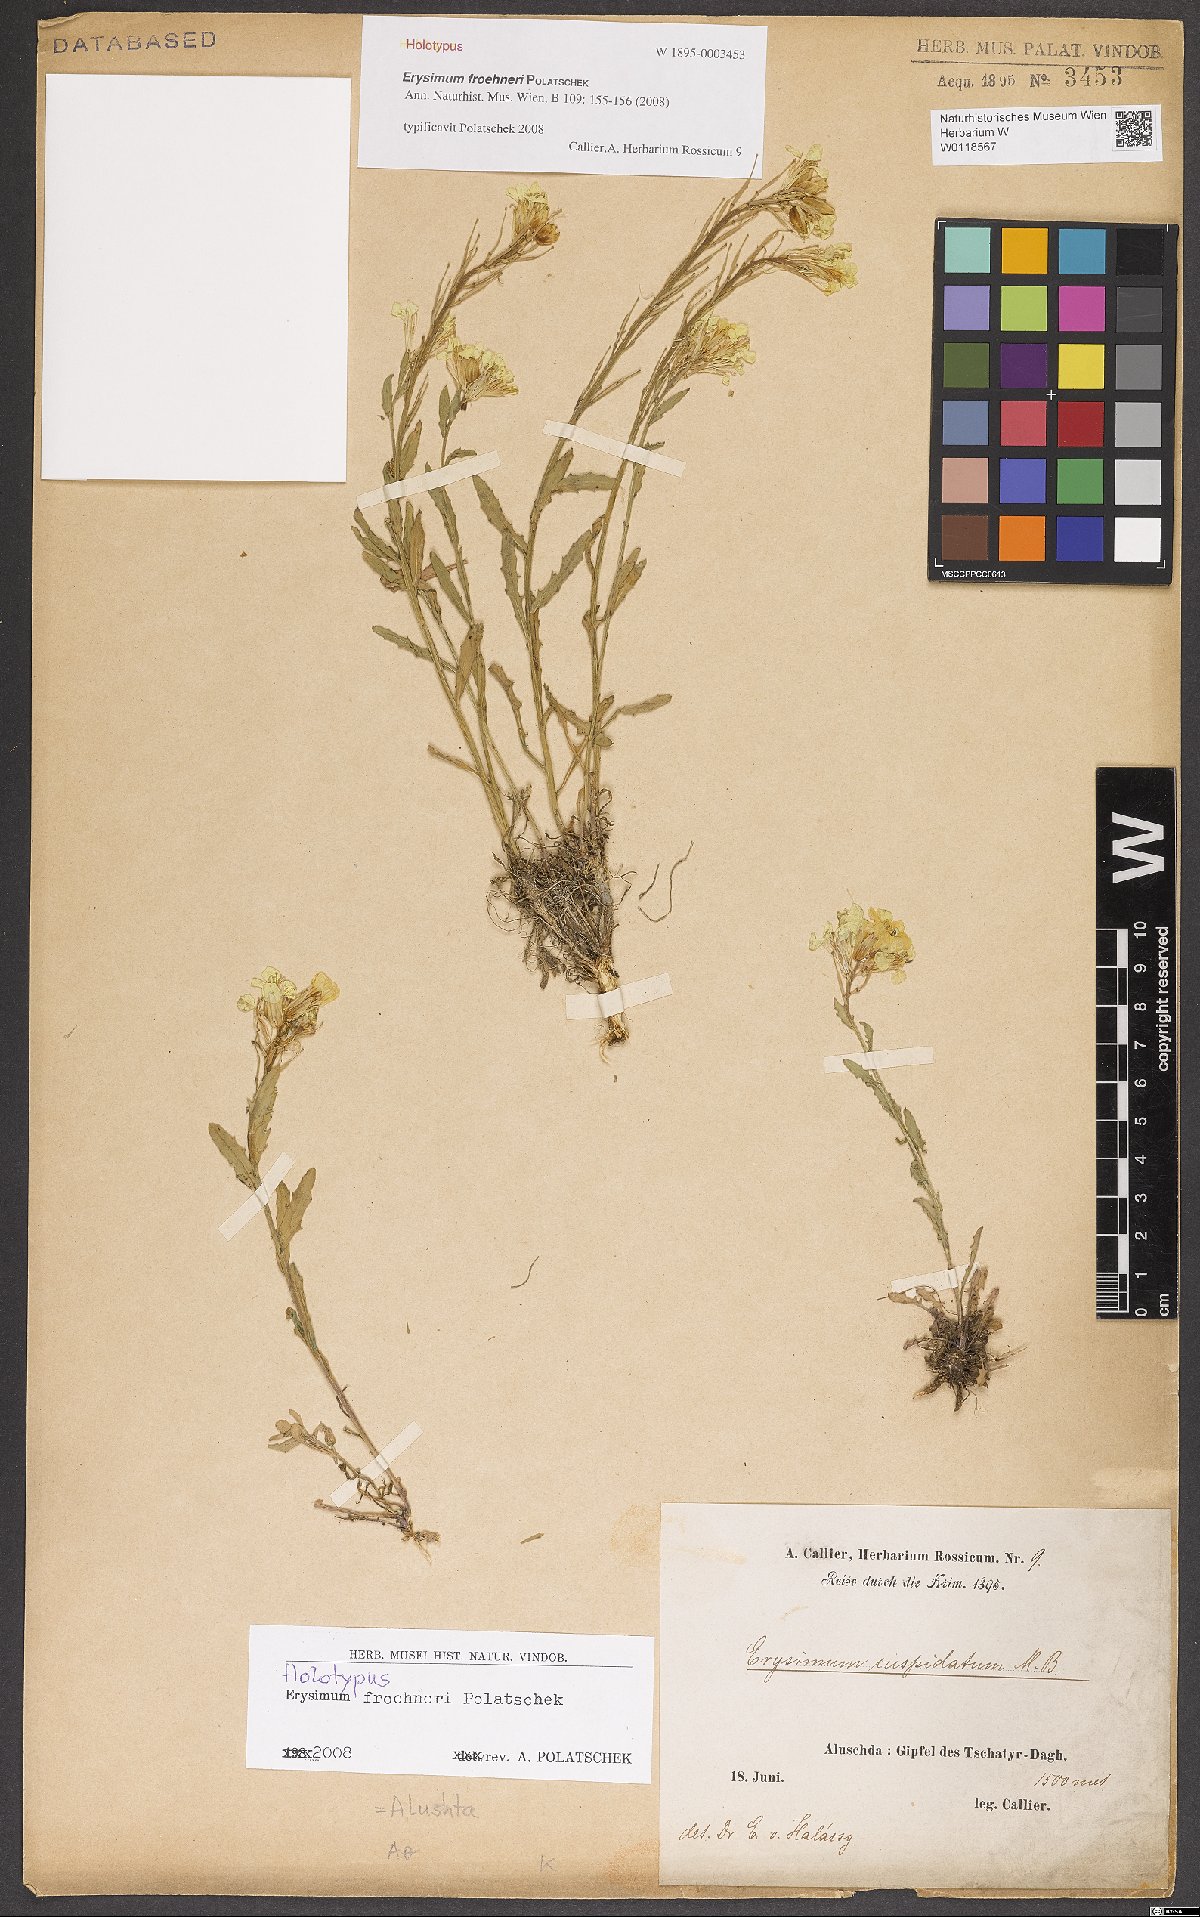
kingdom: Plantae
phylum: Tracheophyta
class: Magnoliopsida
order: Brassicales
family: Brassicaceae
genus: Erysimum
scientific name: Erysimum froehneri
